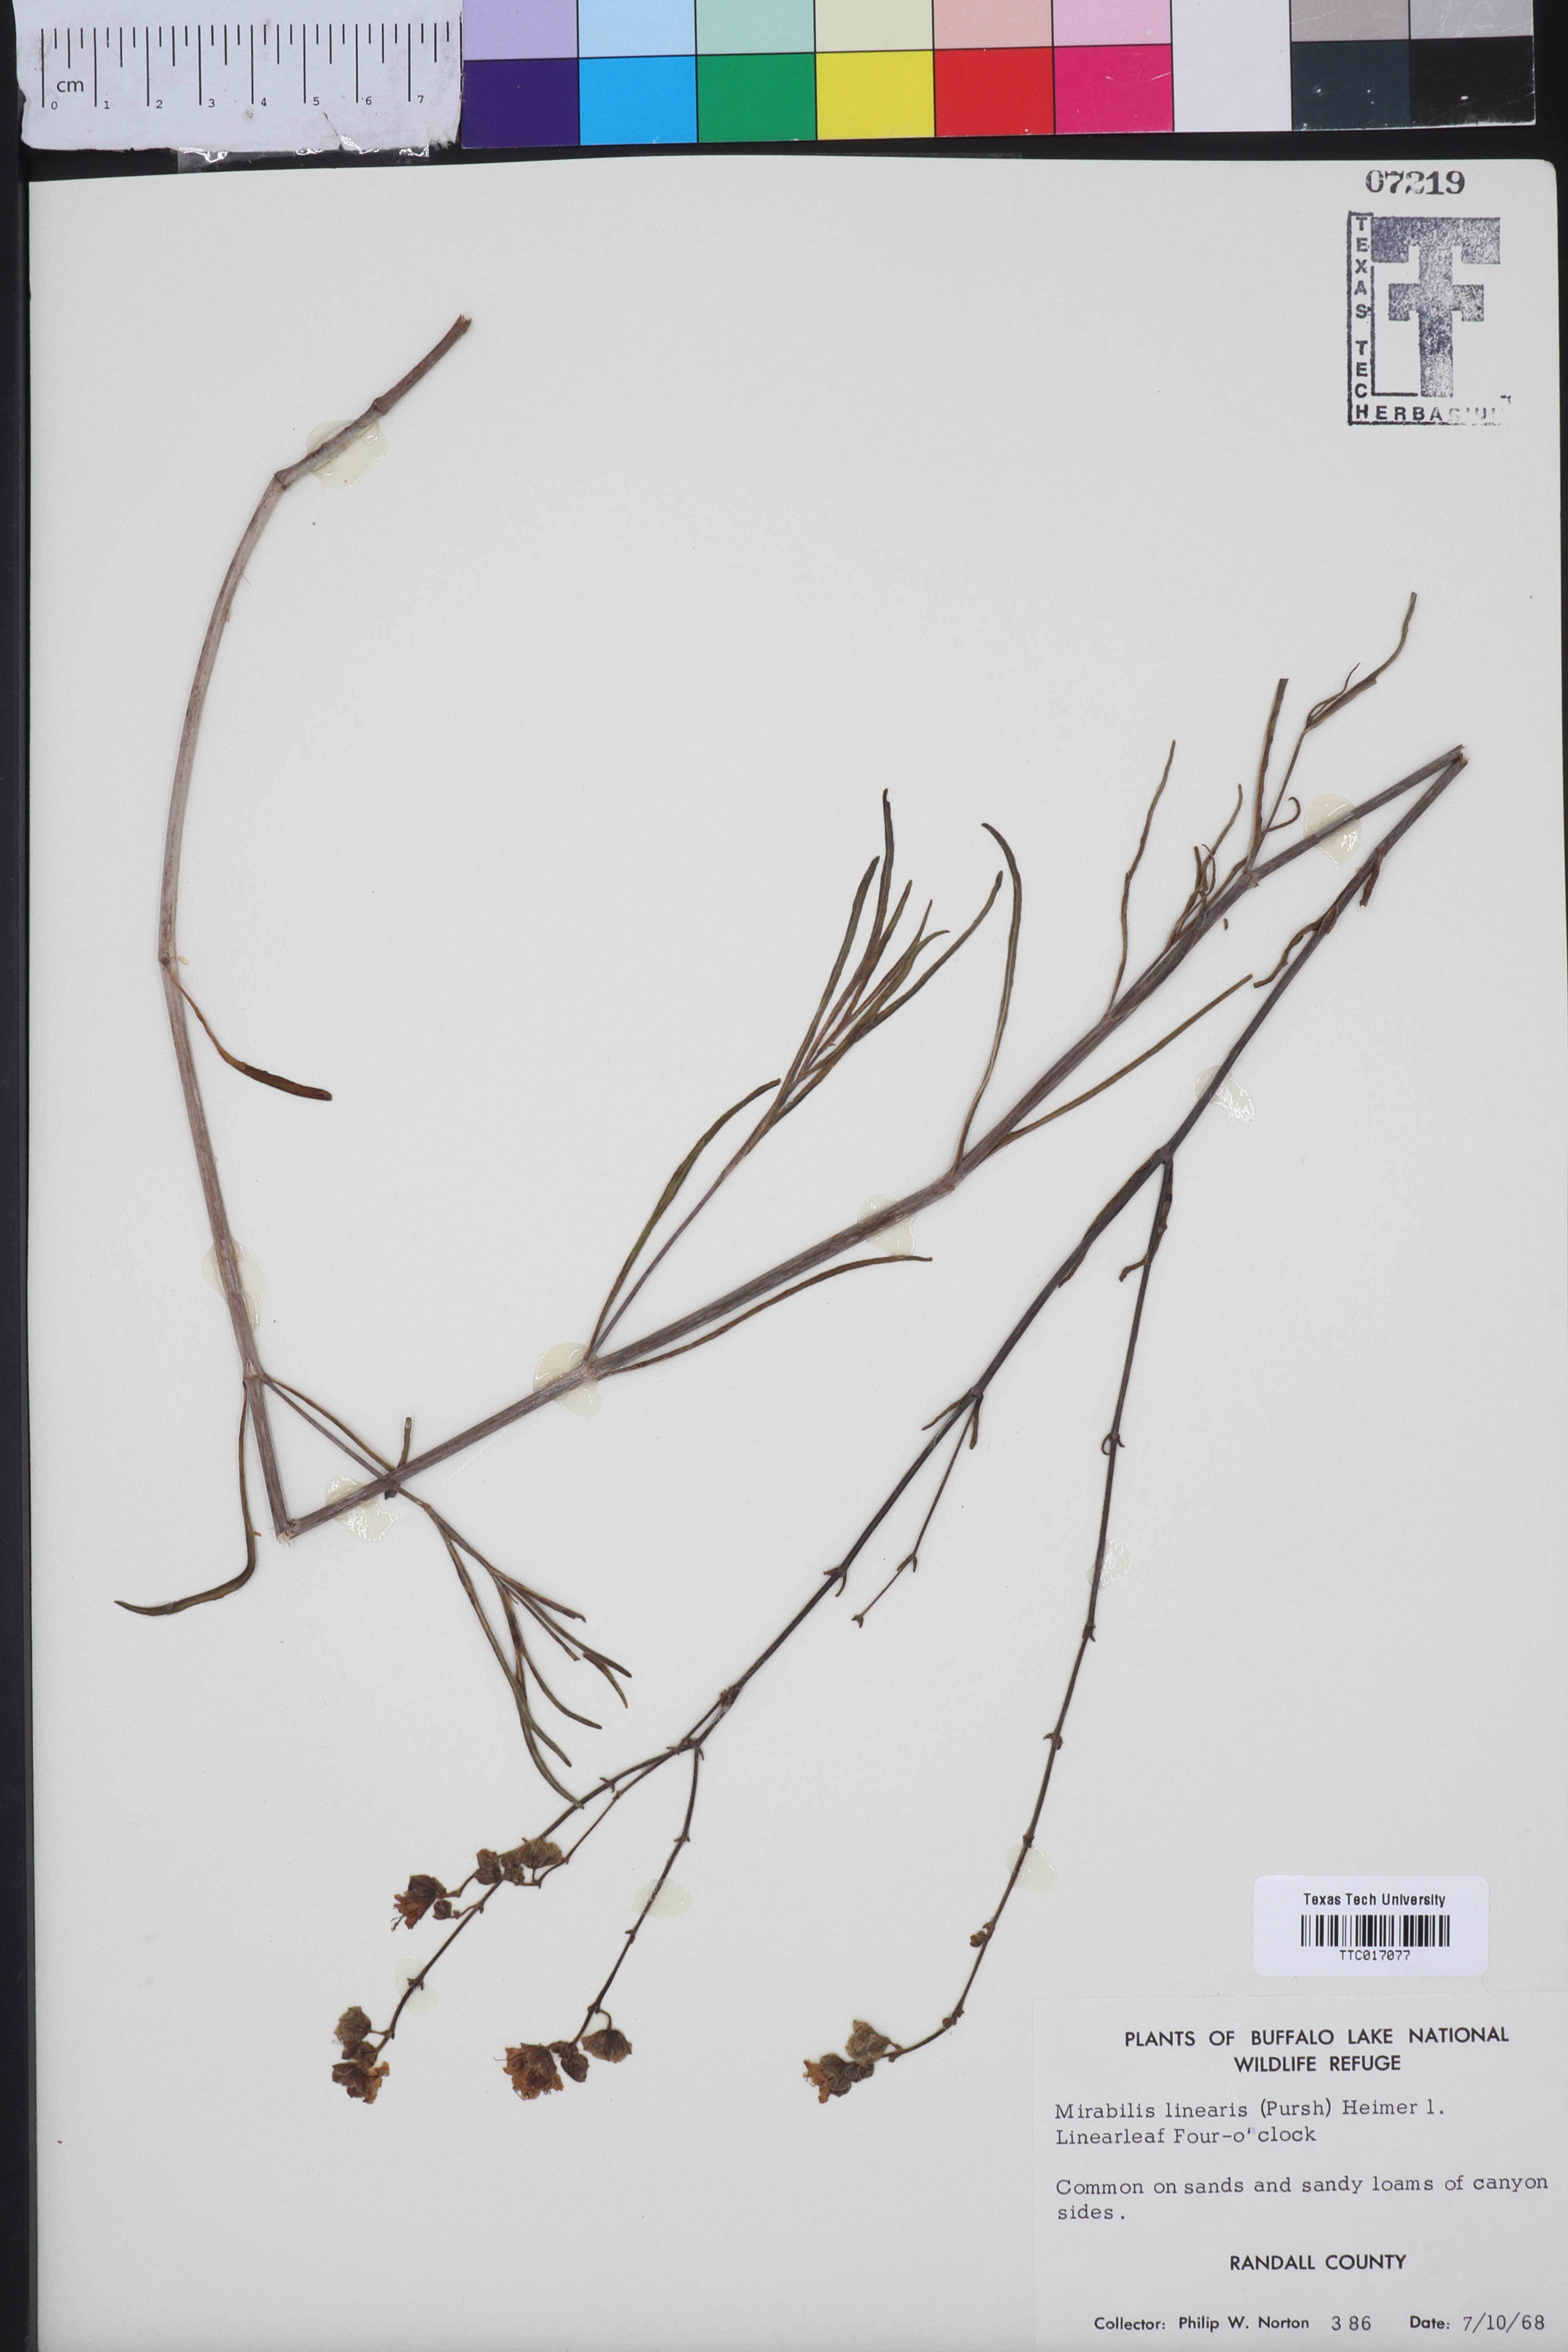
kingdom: Plantae
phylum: Tracheophyta
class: Magnoliopsida
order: Caryophyllales
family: Nyctaginaceae
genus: Mirabilis
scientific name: Mirabilis linearis
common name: Linear-leaved four-o'clock
